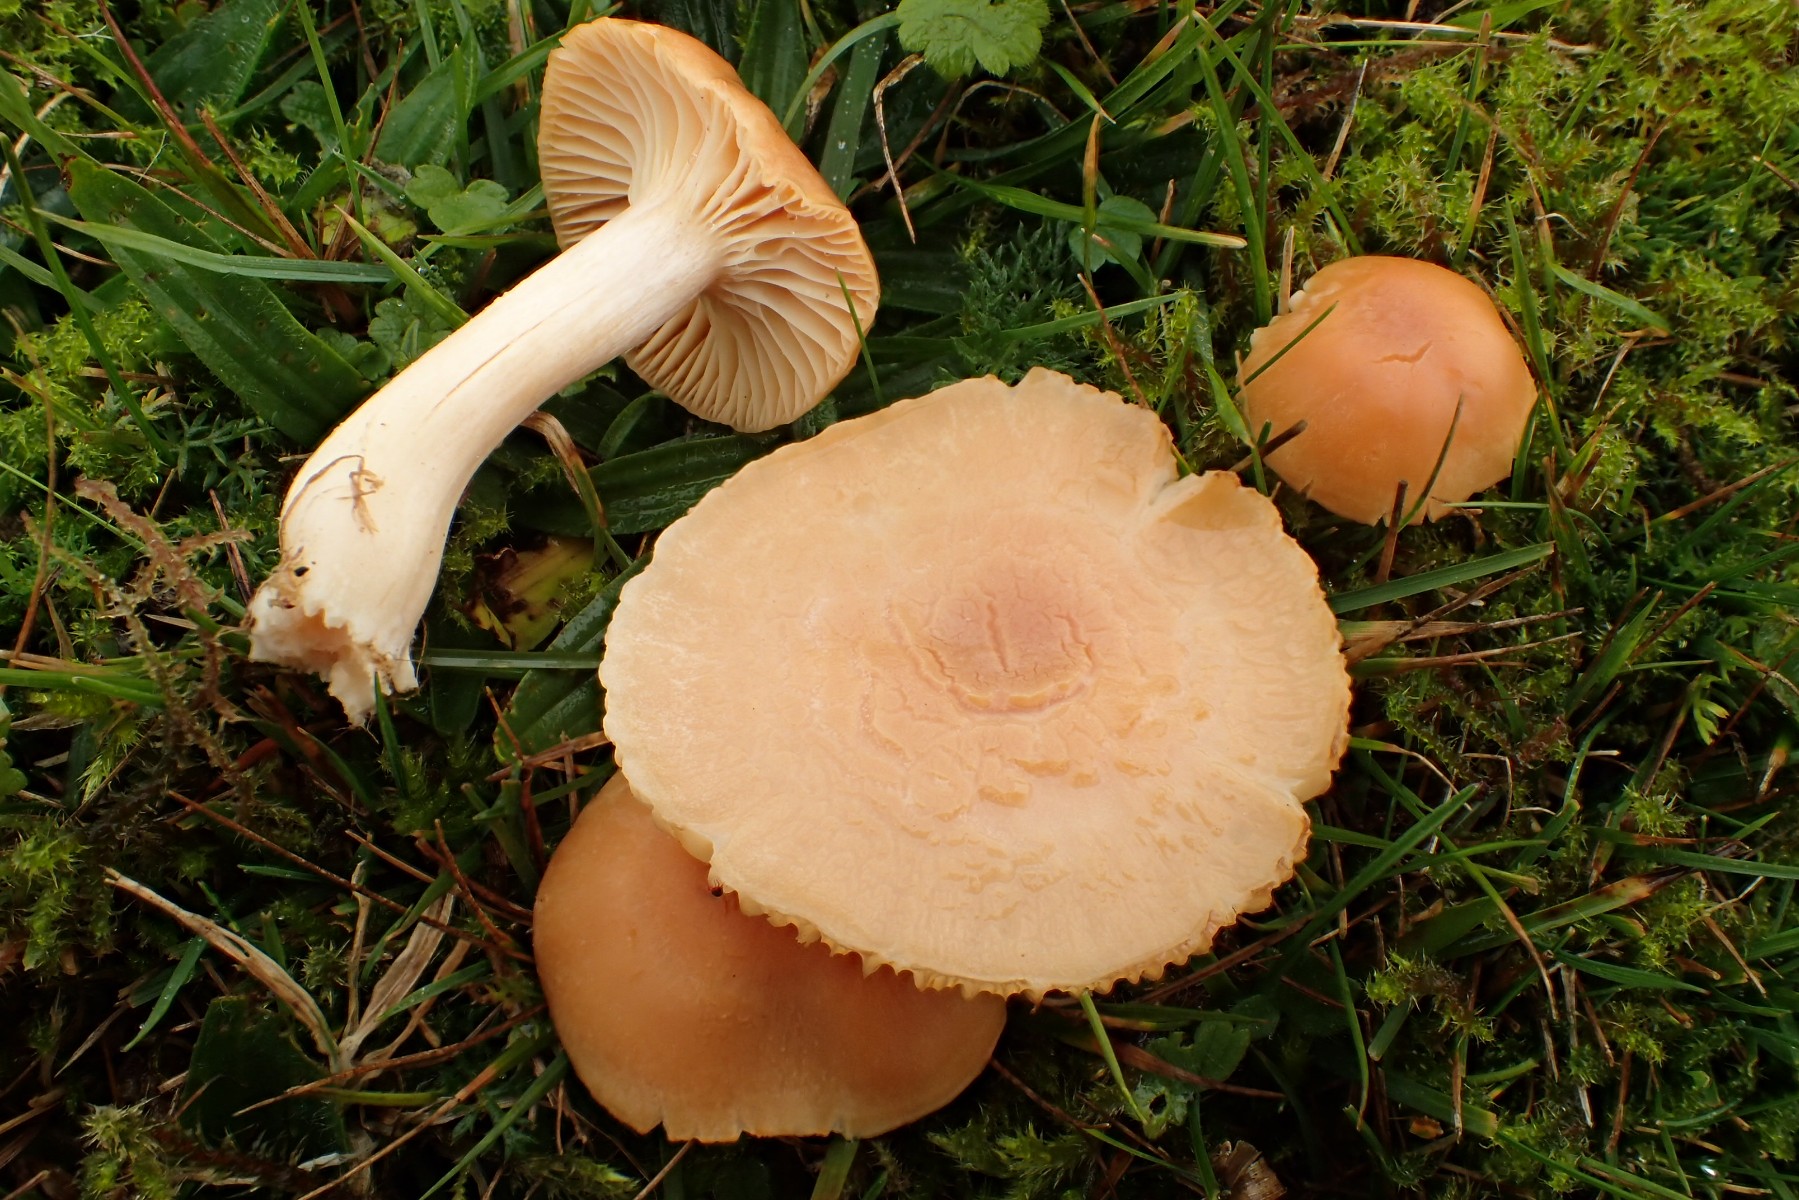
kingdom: Fungi
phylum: Basidiomycota
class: Agaricomycetes
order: Agaricales
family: Hygrophoraceae
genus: Cuphophyllus
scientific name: Cuphophyllus pratensis
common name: eng-vokshat
